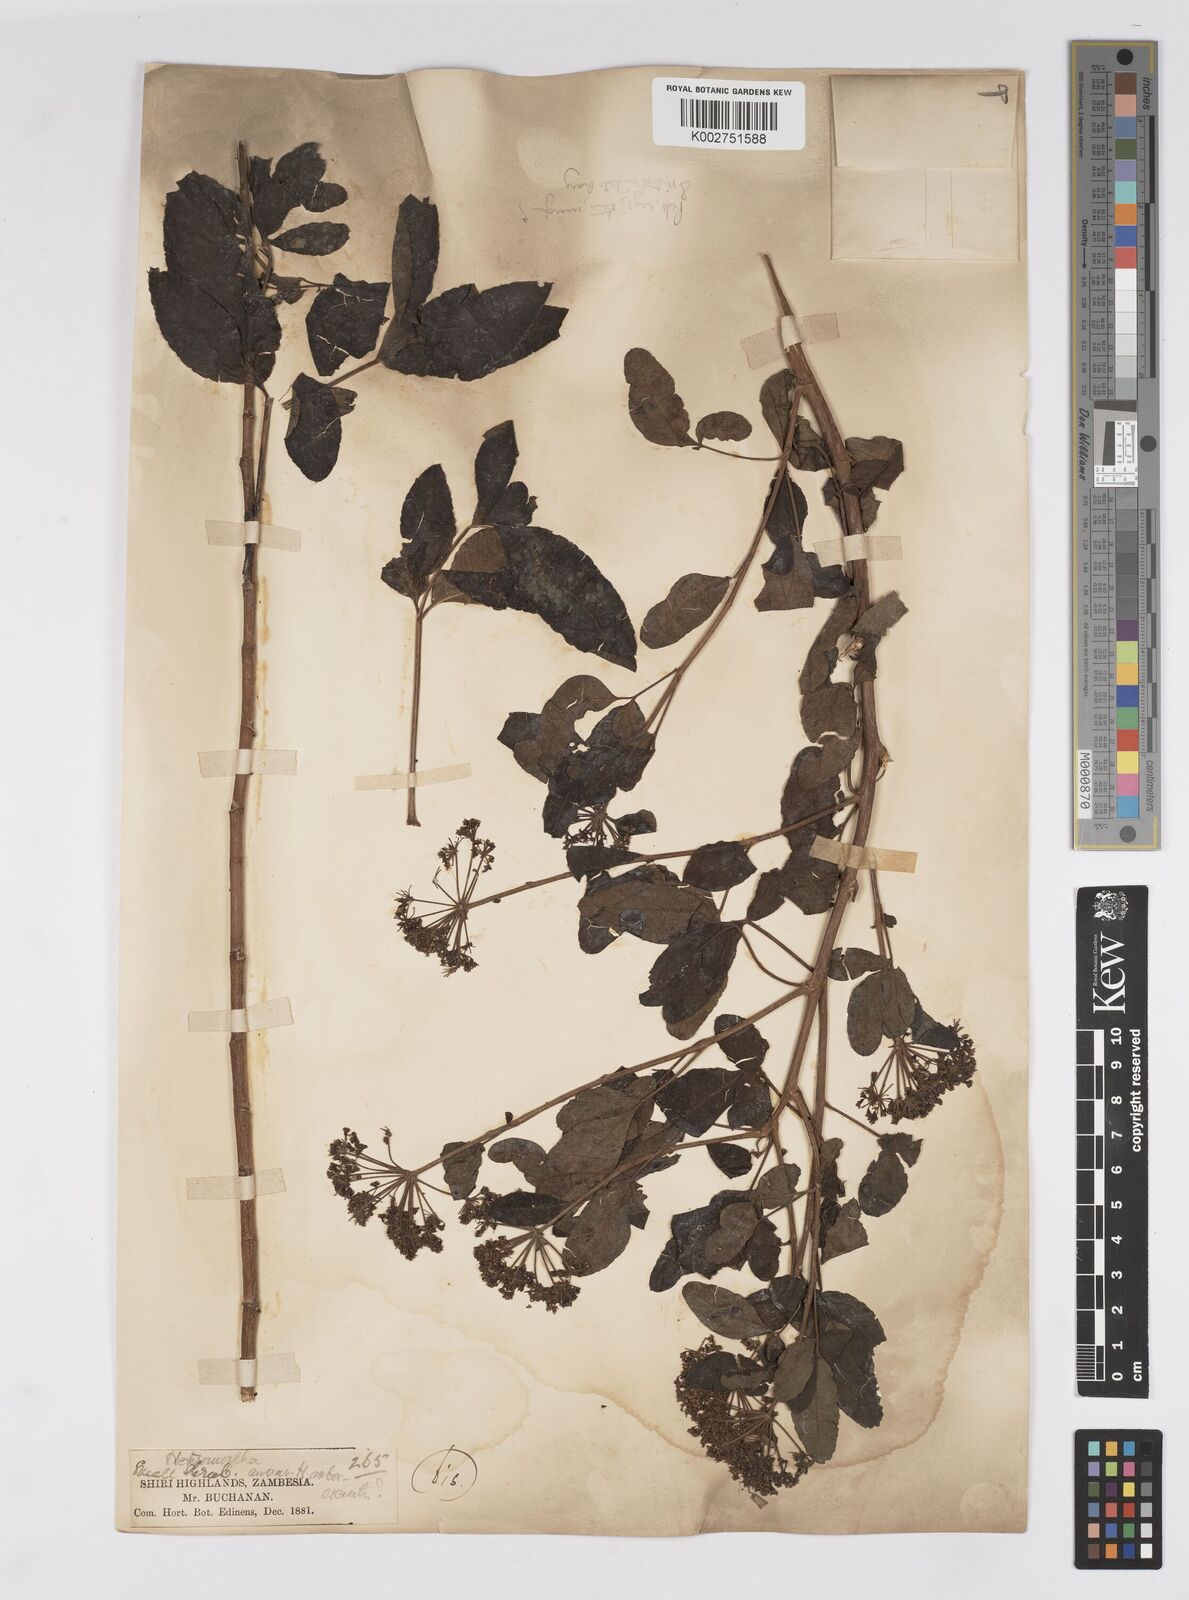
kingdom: Plantae
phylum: Tracheophyta
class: Magnoliopsida
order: Apiales
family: Apiaceae
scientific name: Apiaceae
